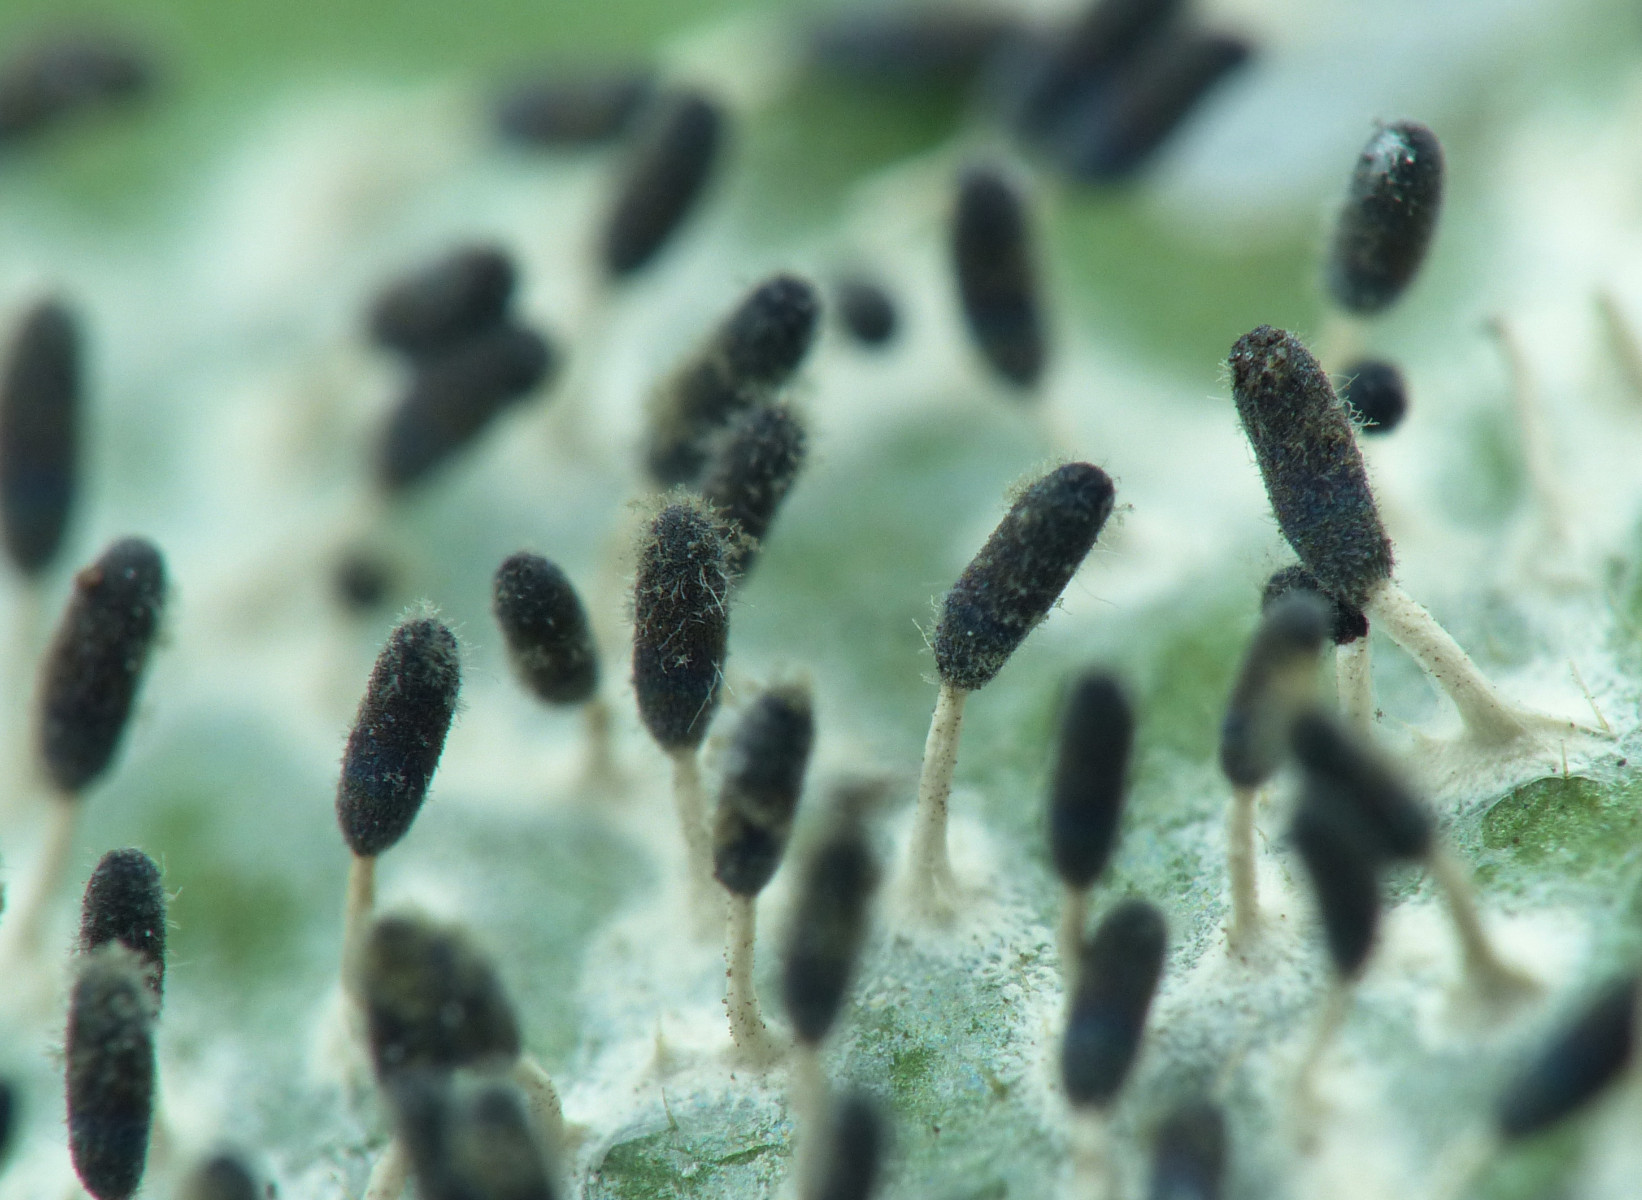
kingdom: Protozoa
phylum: Mycetozoa
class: Myxomycetes
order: Physarales
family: Didymiaceae
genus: Diachea
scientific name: Diachea leucopodia
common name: hvidstokket metalknop
